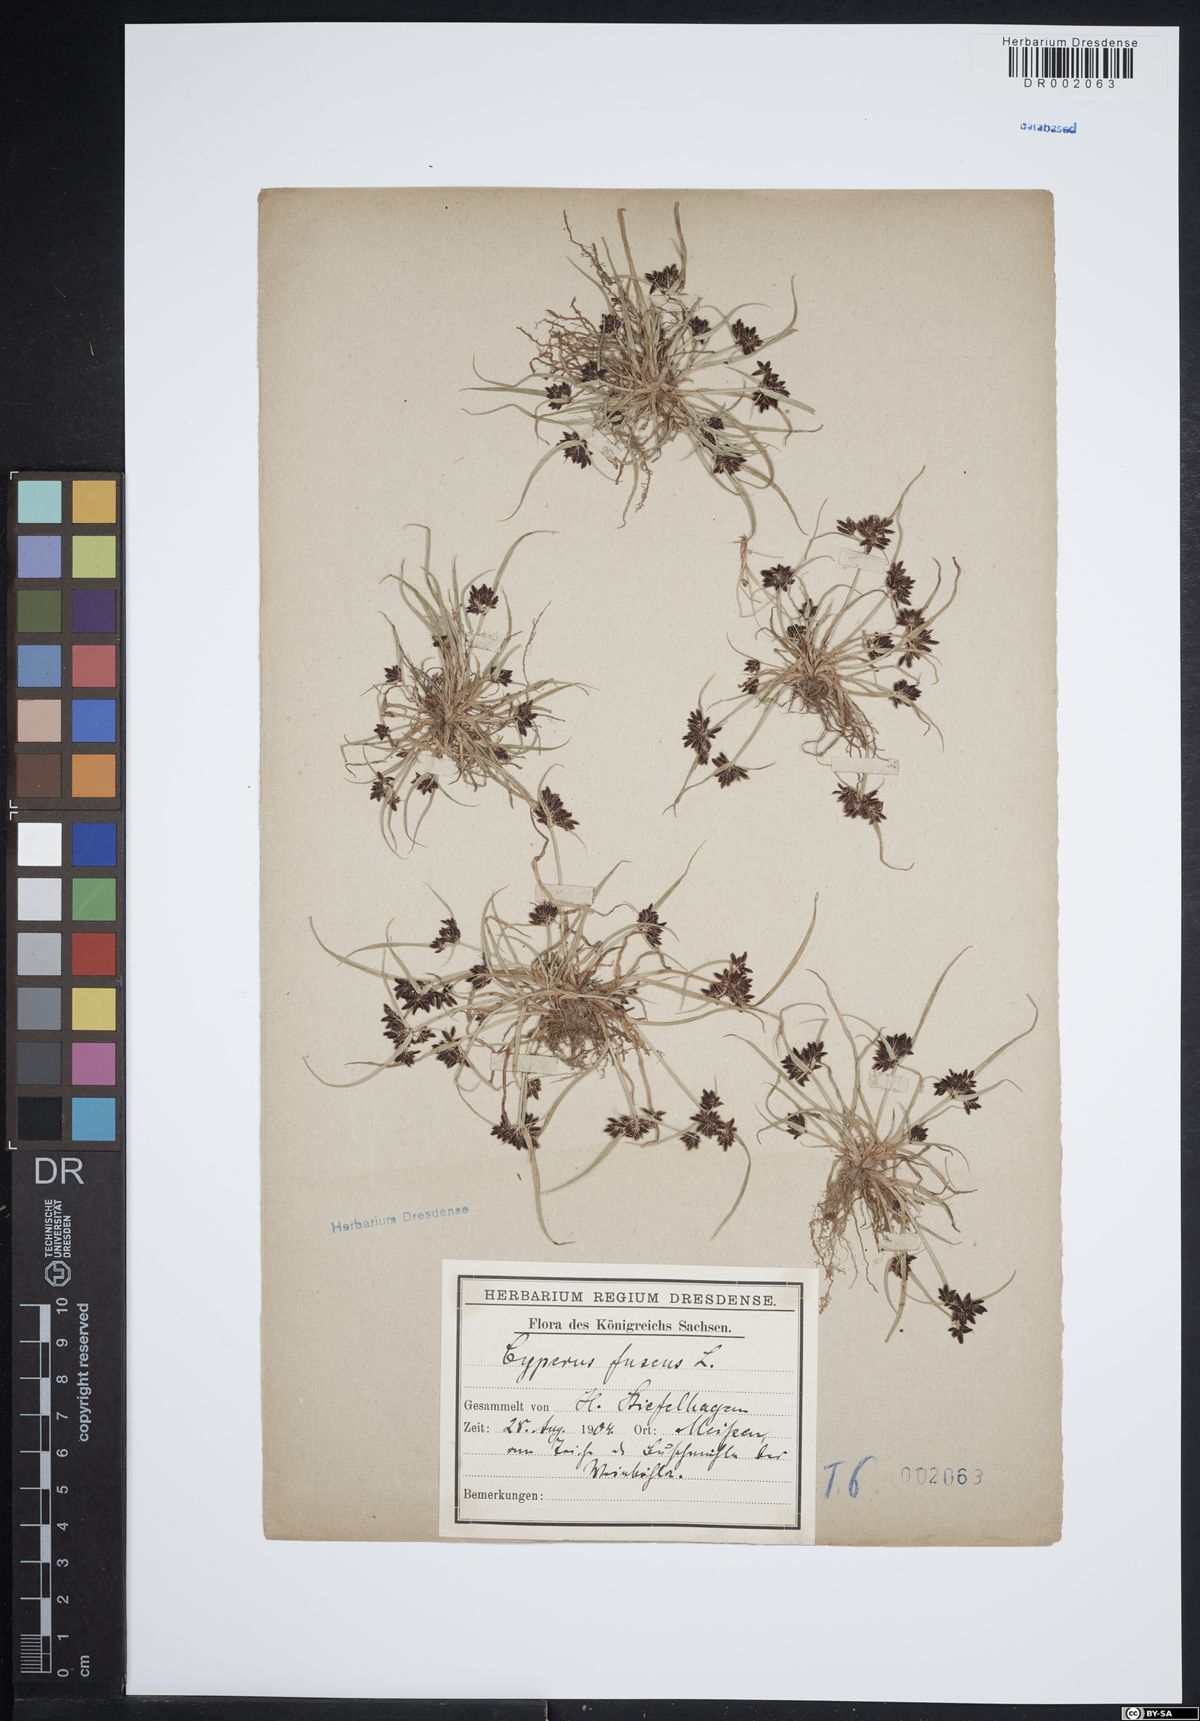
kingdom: Plantae
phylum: Tracheophyta
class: Liliopsida
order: Poales
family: Cyperaceae
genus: Cyperus
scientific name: Cyperus fuscus
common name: Brown galingale
